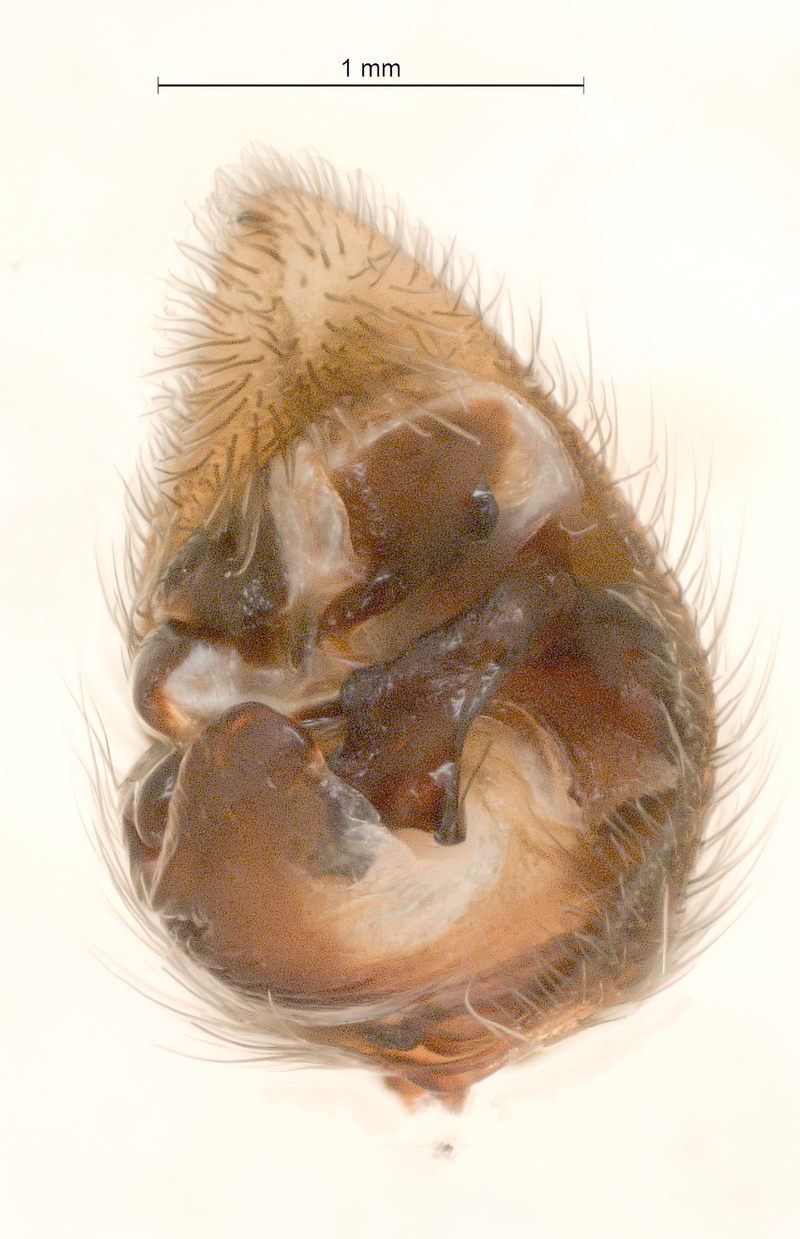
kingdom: Animalia
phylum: Arthropoda
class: Arachnida
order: Araneae
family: Lycosidae
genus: Pardosa
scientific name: Pardosa palustris
